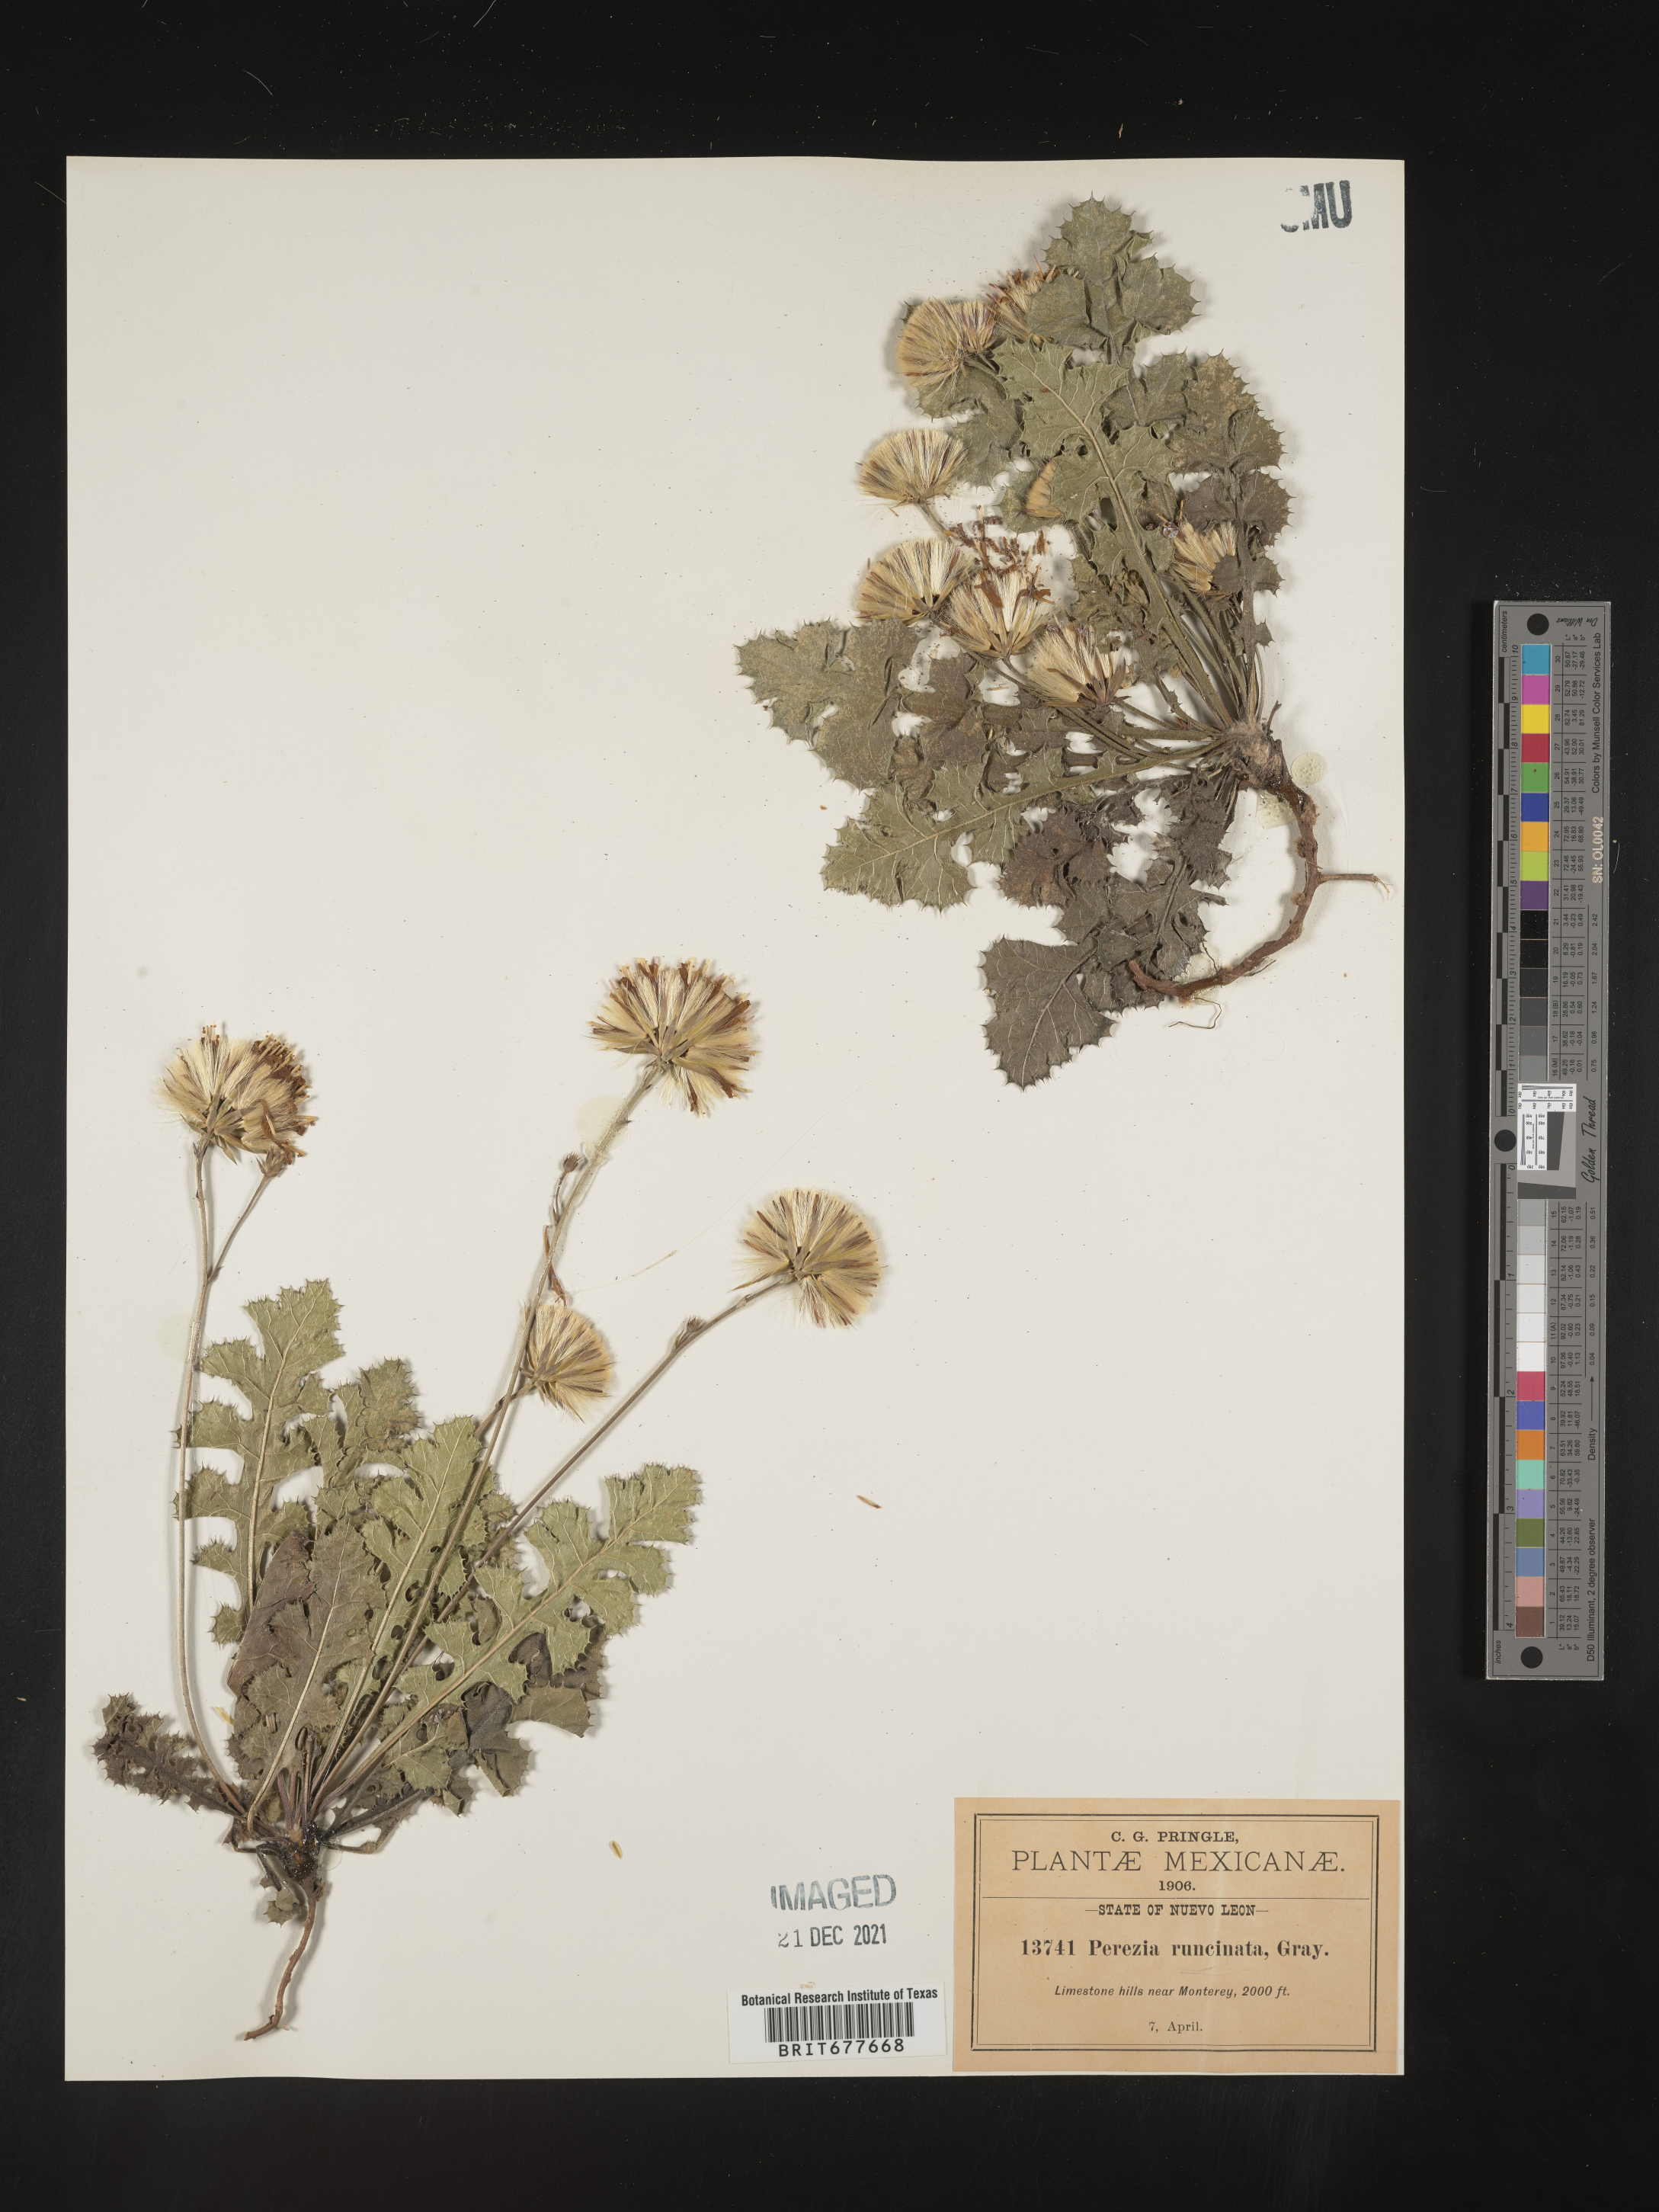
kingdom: Plantae
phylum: Tracheophyta
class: Magnoliopsida
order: Asterales
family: Asteraceae
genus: Perezia
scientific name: Perezia
